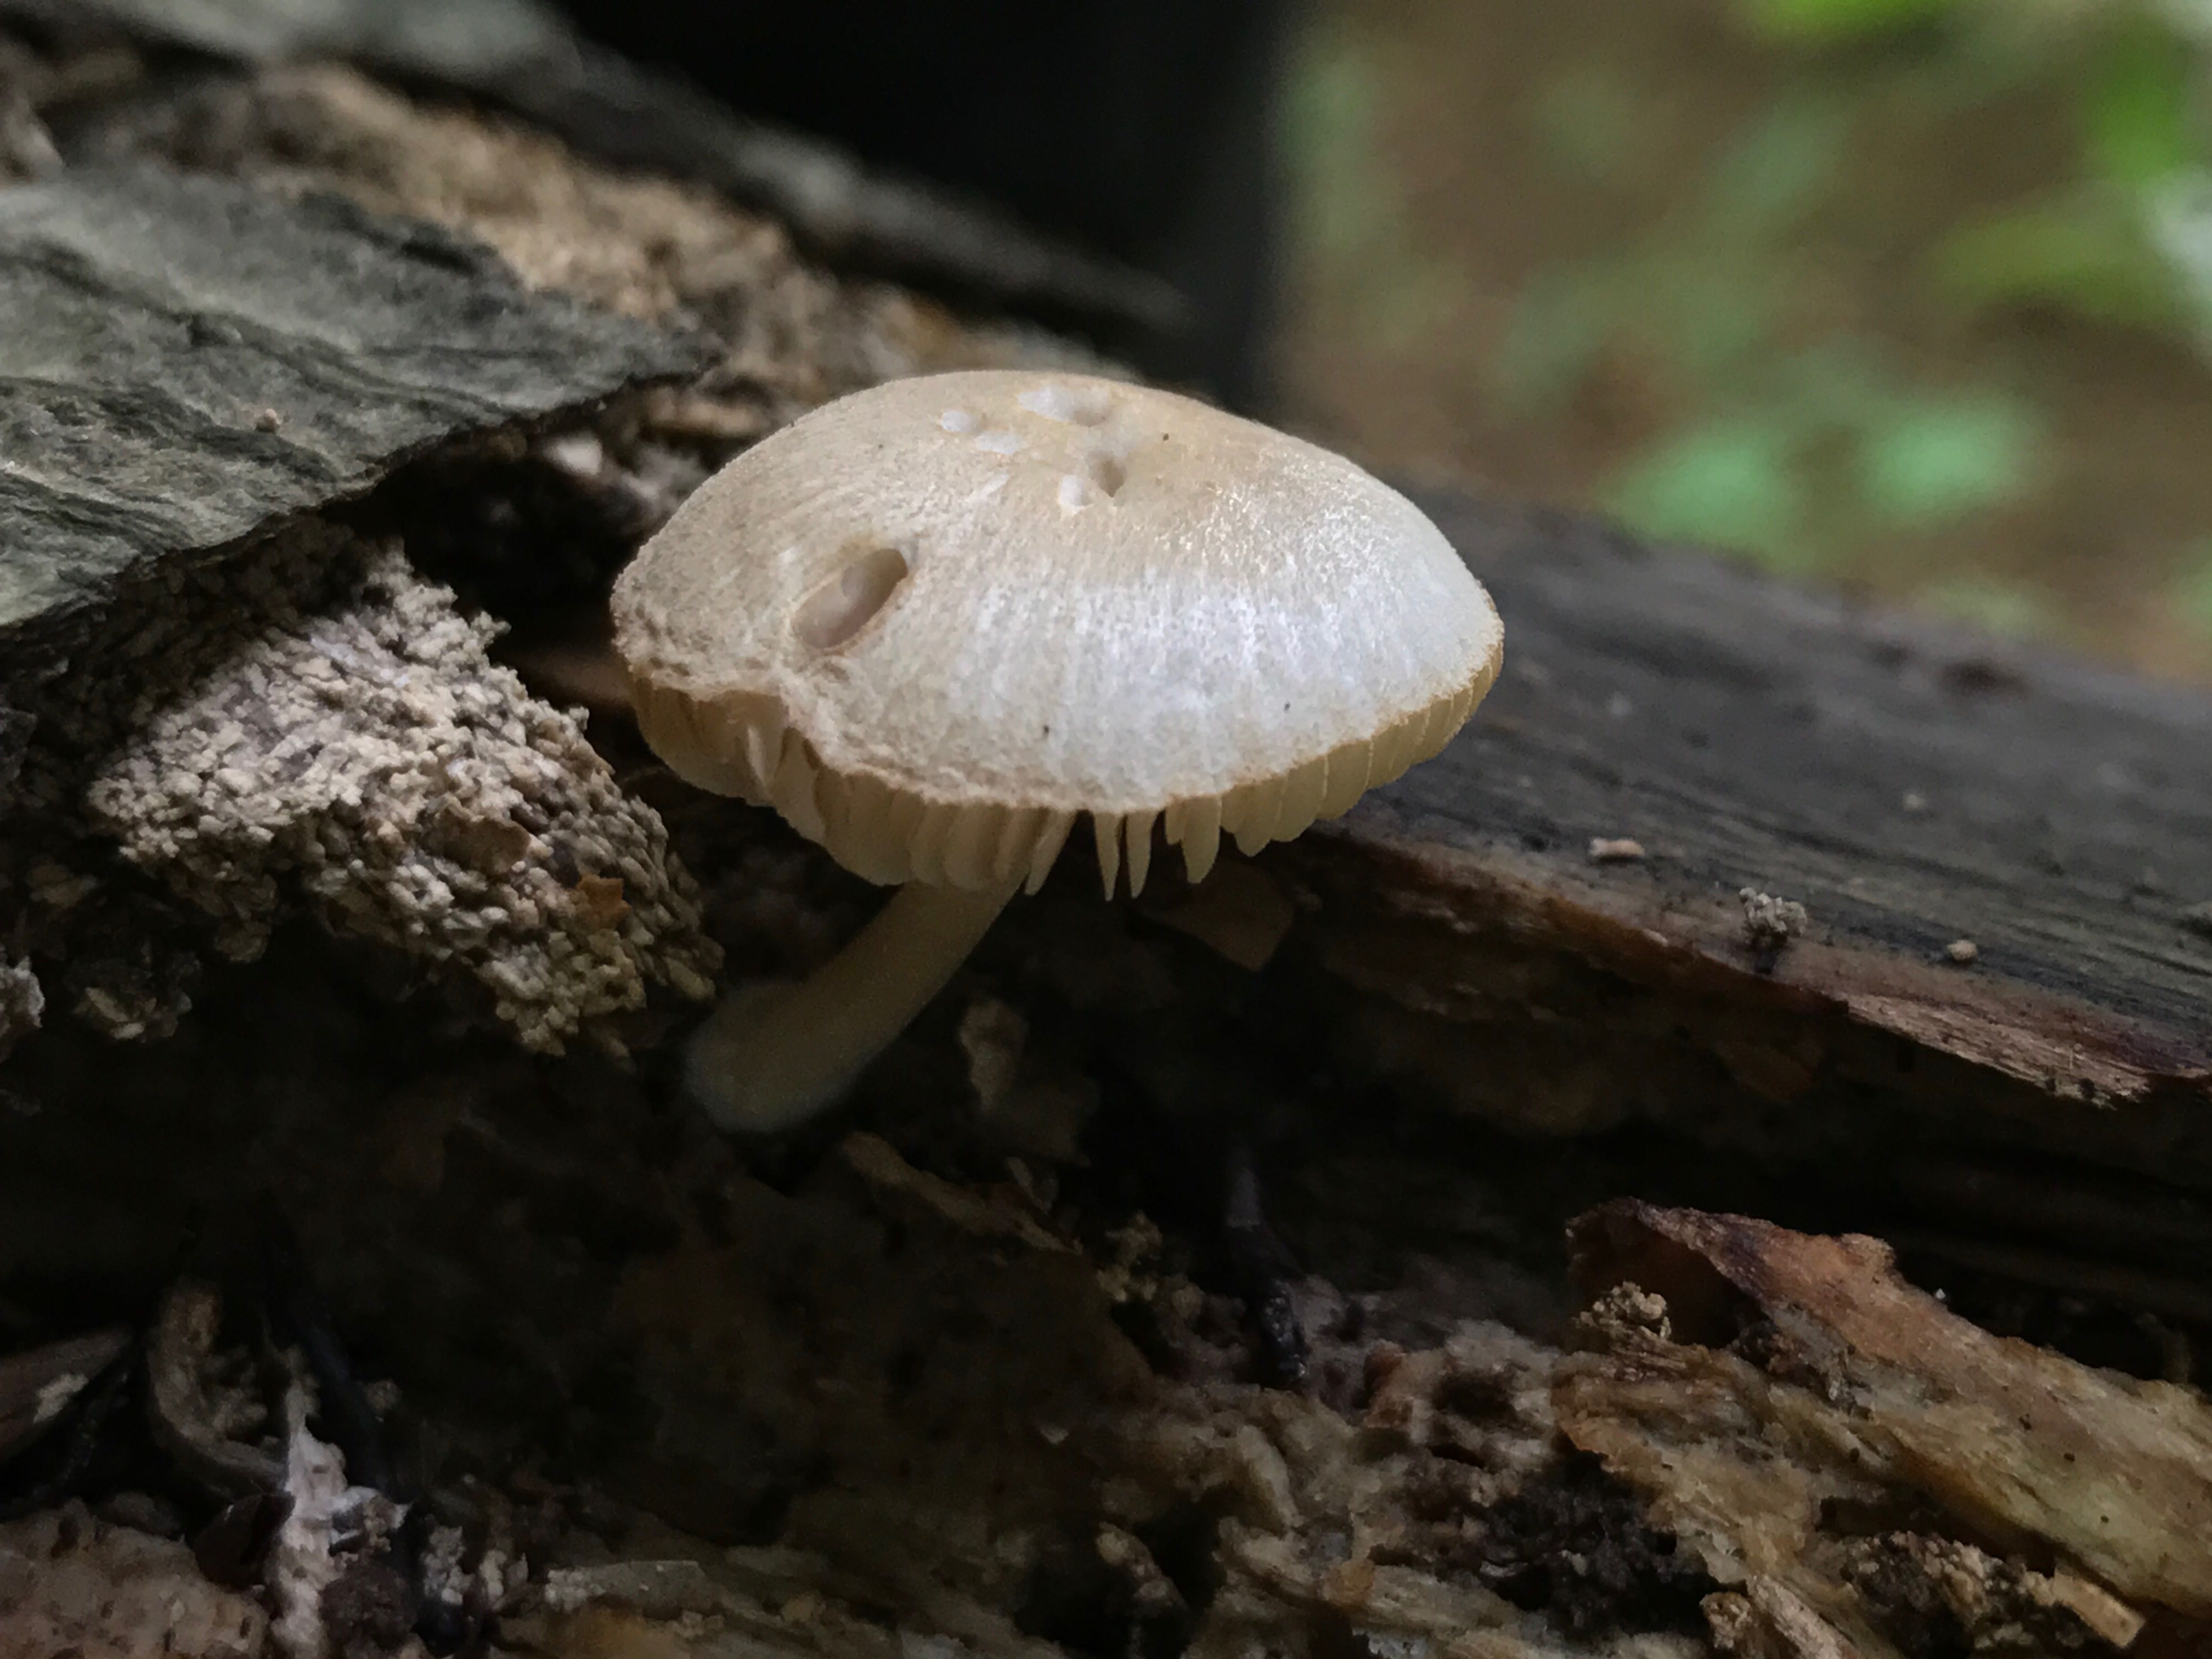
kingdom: Fungi
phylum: Basidiomycota
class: Agaricomycetes
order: Agaricales
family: Pluteaceae
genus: Pluteus
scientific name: Pluteus
